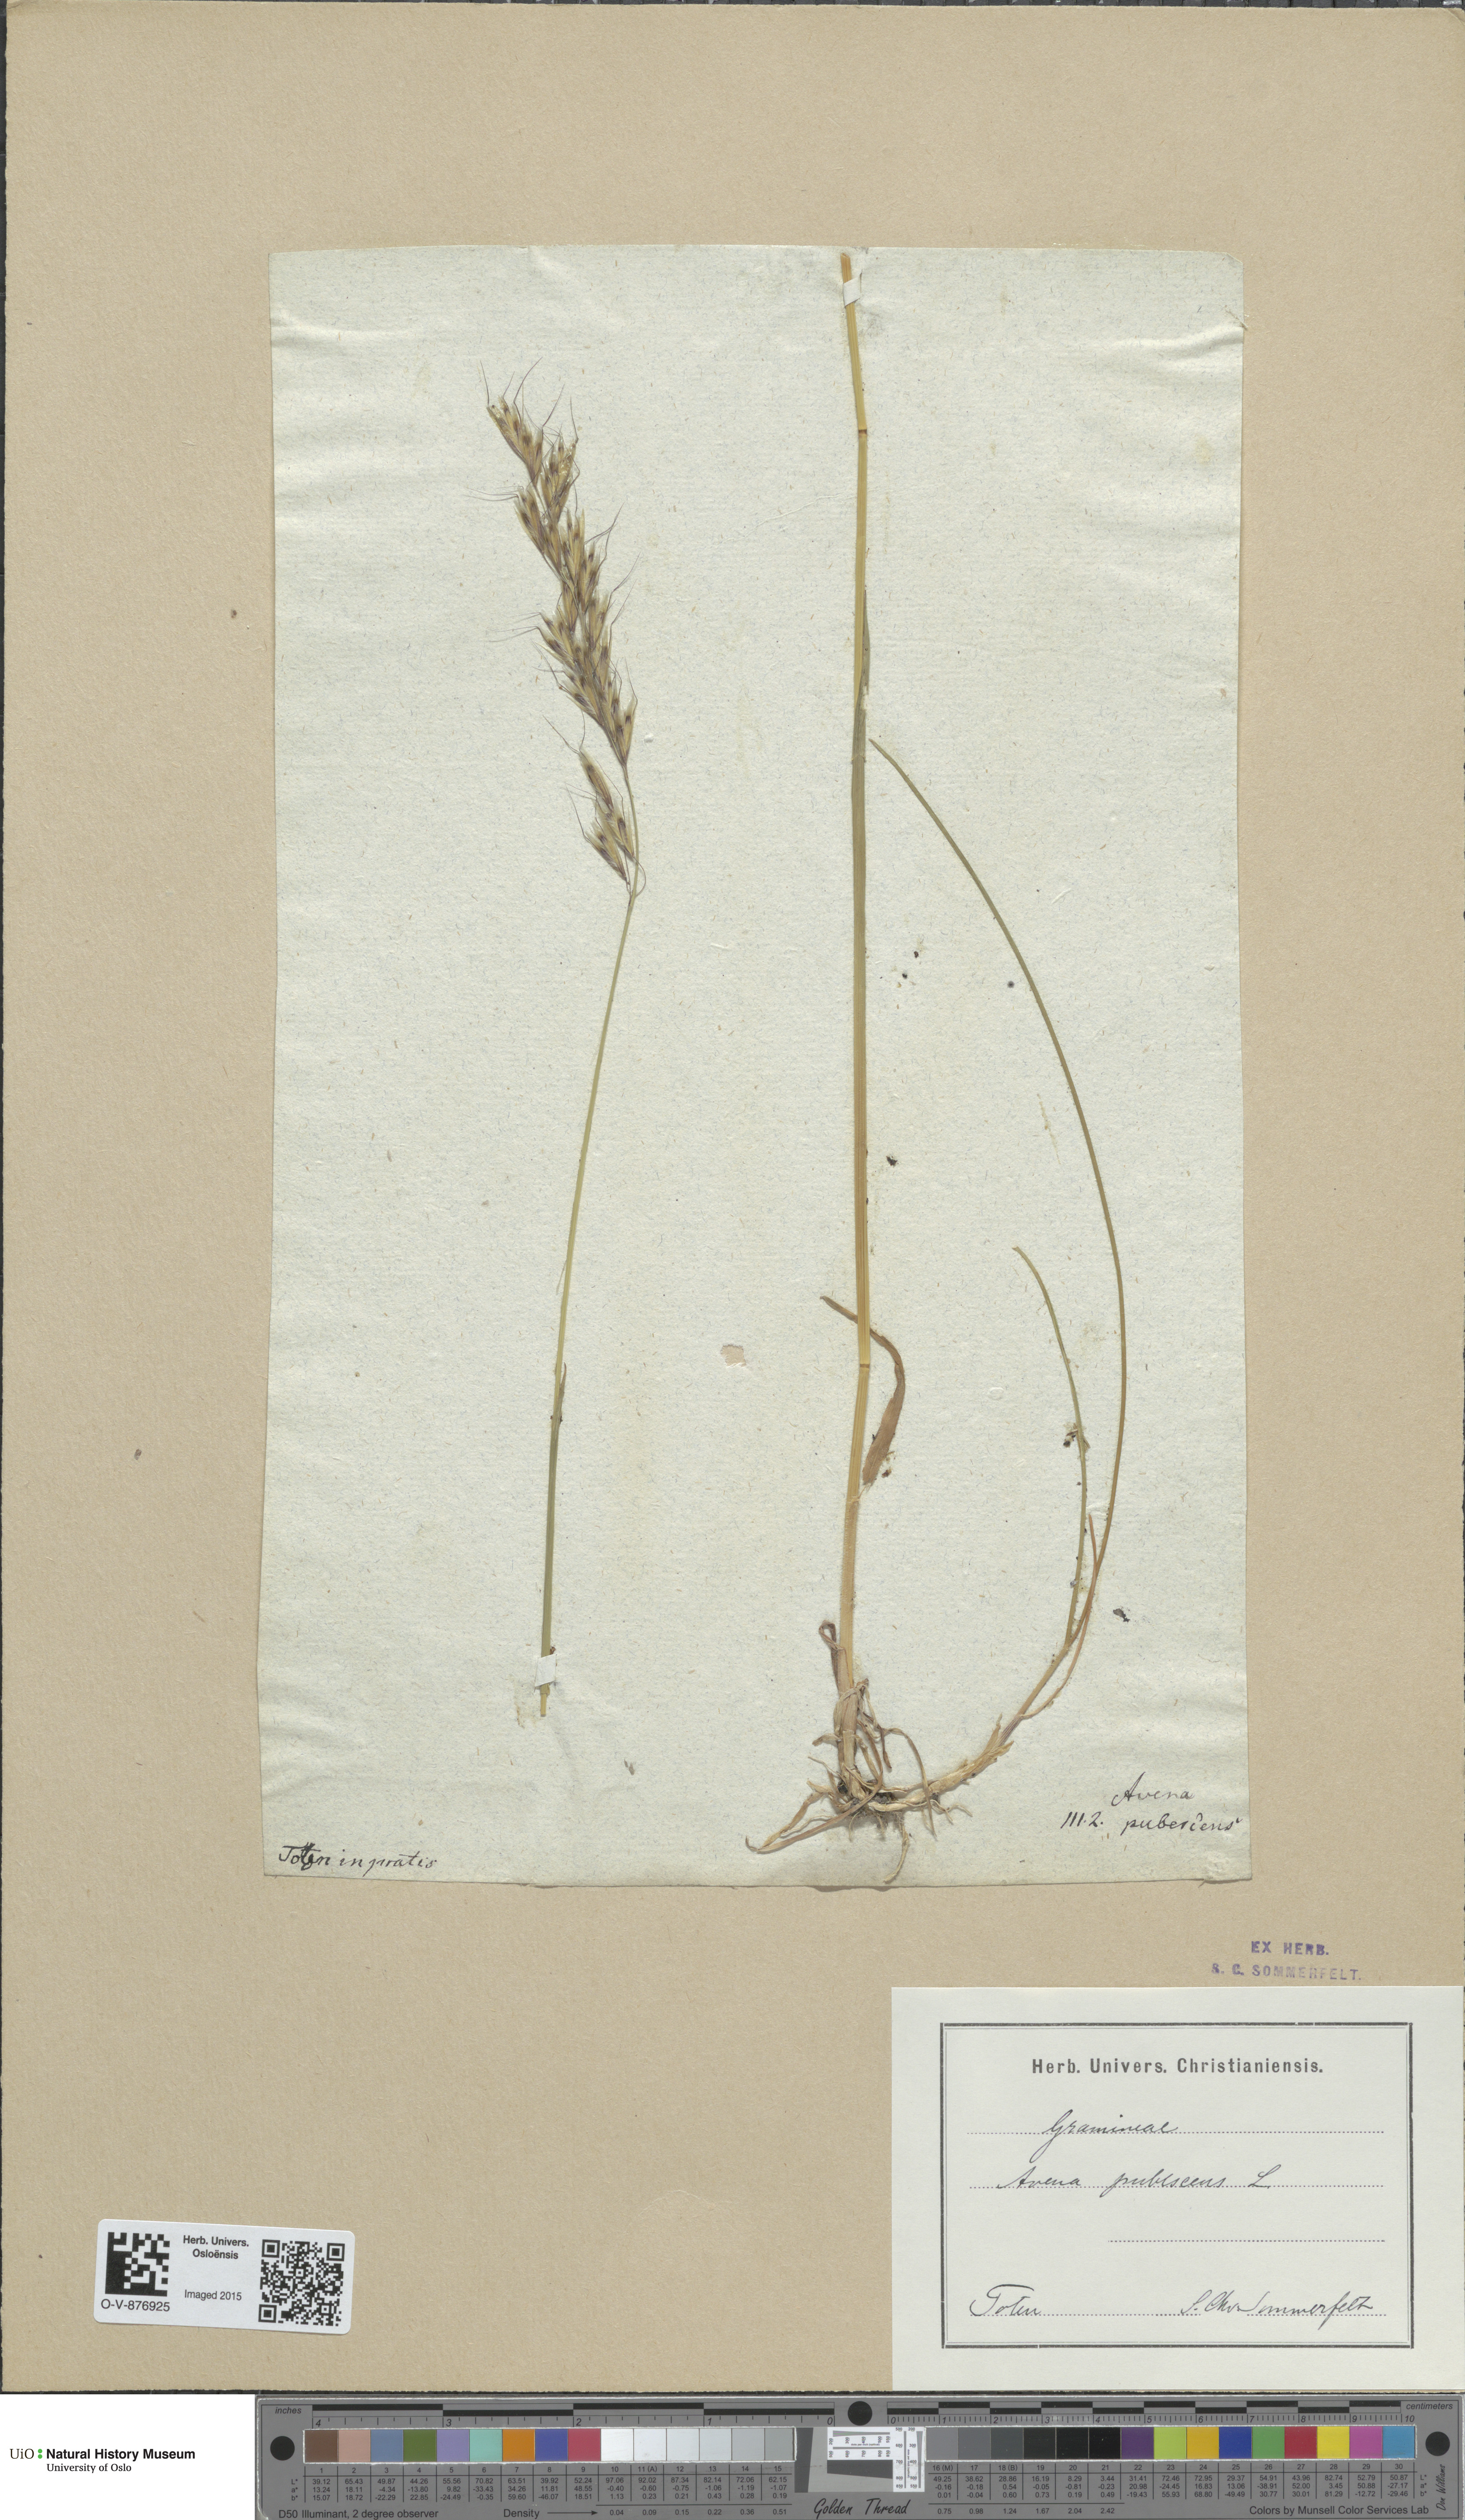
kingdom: Plantae
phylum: Tracheophyta
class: Liliopsida
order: Poales
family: Poaceae
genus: Avenula
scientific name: Avenula pubescens
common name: Downy alpine oatgrass
